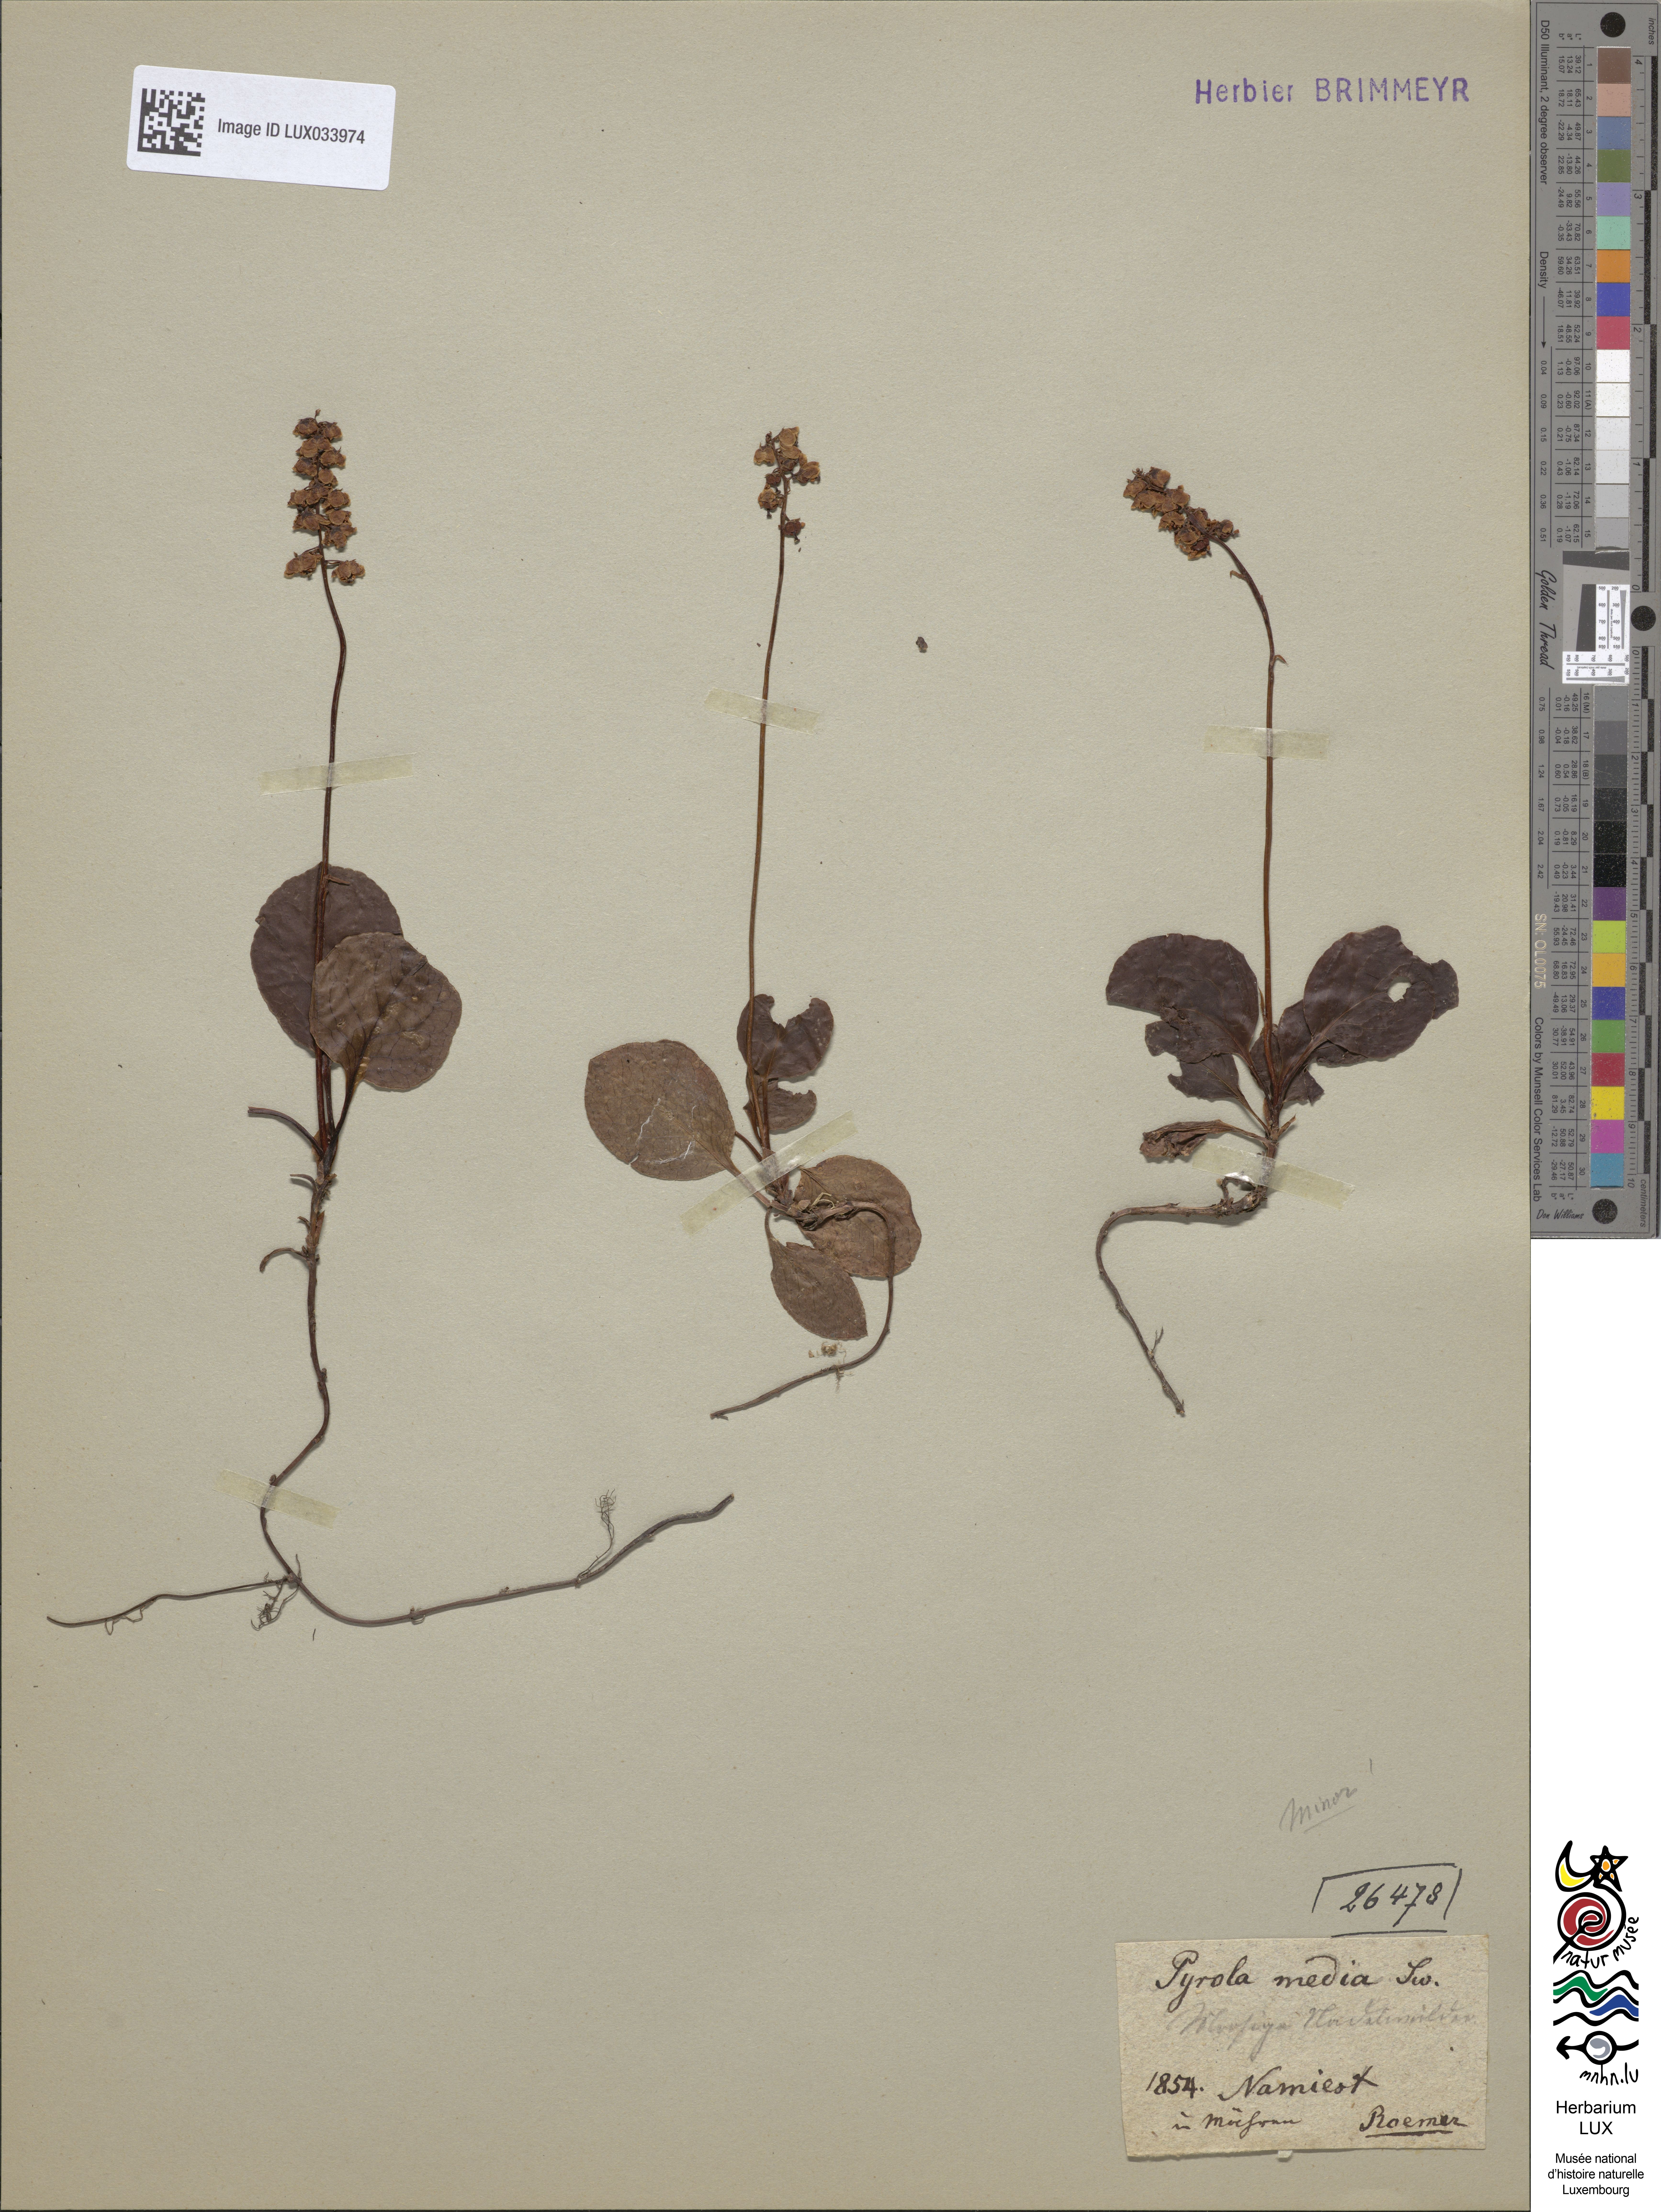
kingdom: Plantae
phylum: Tracheophyta
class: Magnoliopsida
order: Ericales
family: Ericaceae
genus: Pyrola
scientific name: Pyrola minor
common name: Common wintergreen
